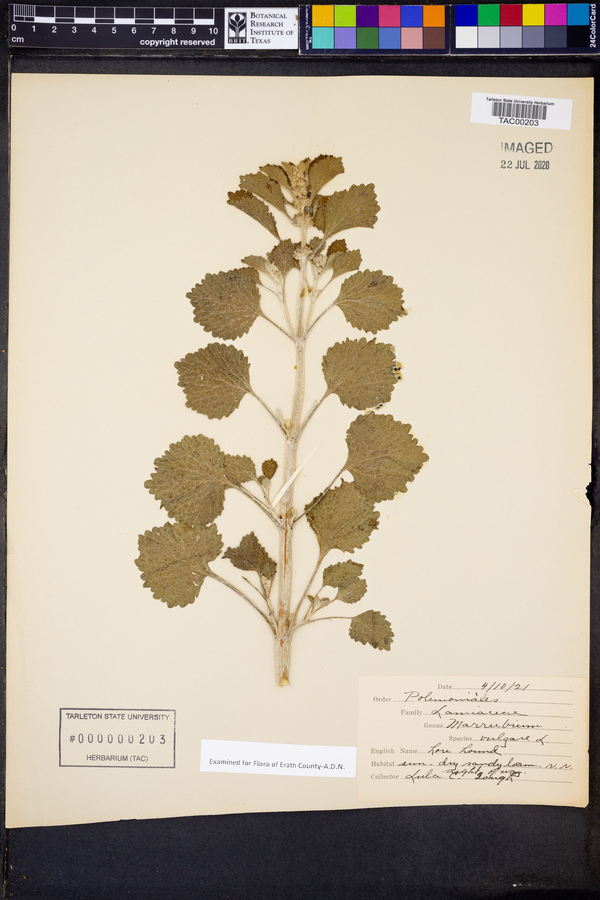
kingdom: Plantae
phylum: Tracheophyta
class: Magnoliopsida
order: Lamiales
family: Lamiaceae
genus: Marrubium
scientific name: Marrubium vulgare
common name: Horehound
